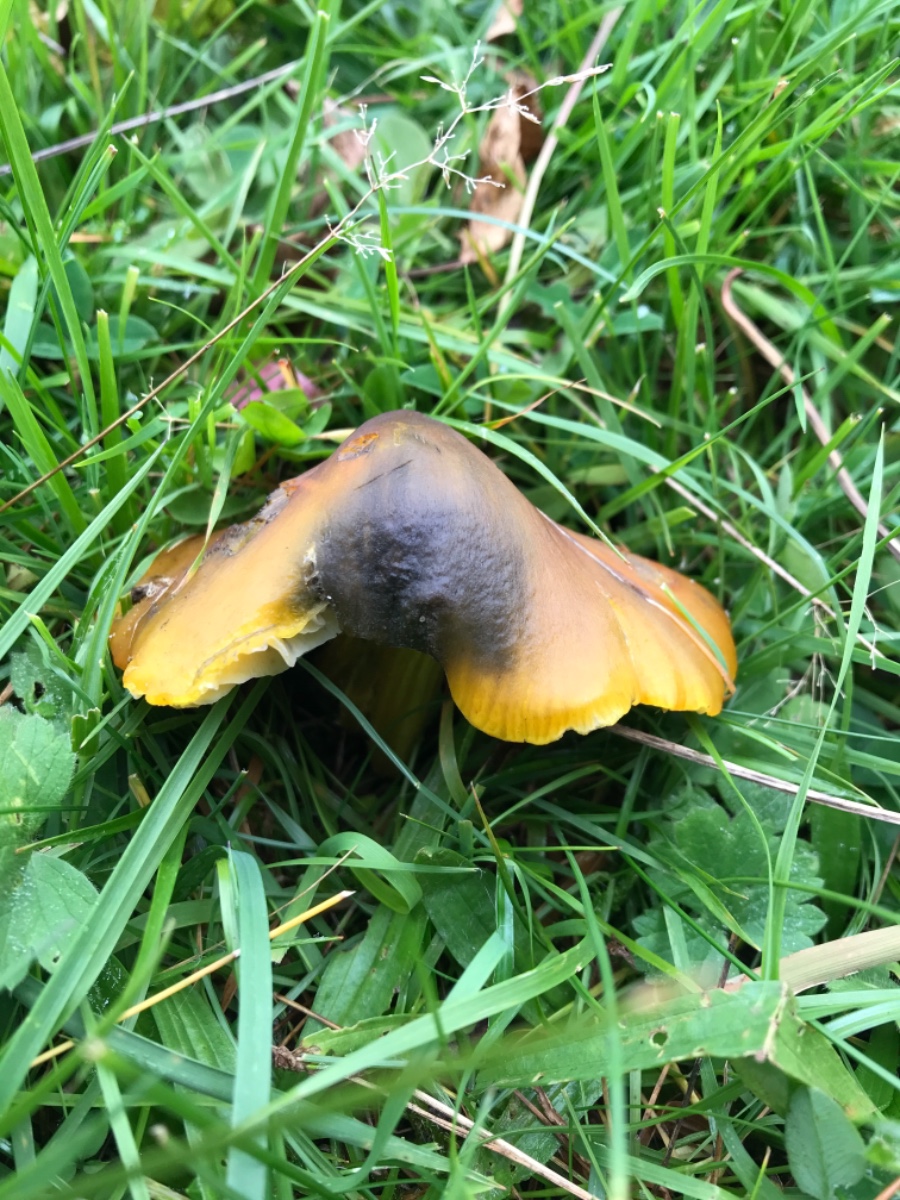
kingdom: Fungi
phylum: Basidiomycota
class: Agaricomycetes
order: Agaricales
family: Hygrophoraceae
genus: Hygrocybe
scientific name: Hygrocybe conica
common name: kegle-vokshat
